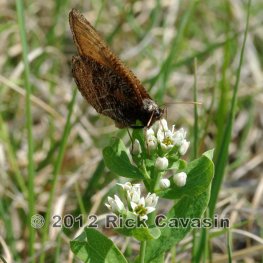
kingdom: Animalia
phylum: Arthropoda
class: Insecta
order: Lepidoptera
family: Nymphalidae
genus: Oeneis
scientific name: Oeneis chryxus
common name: Chryxus Arctic
